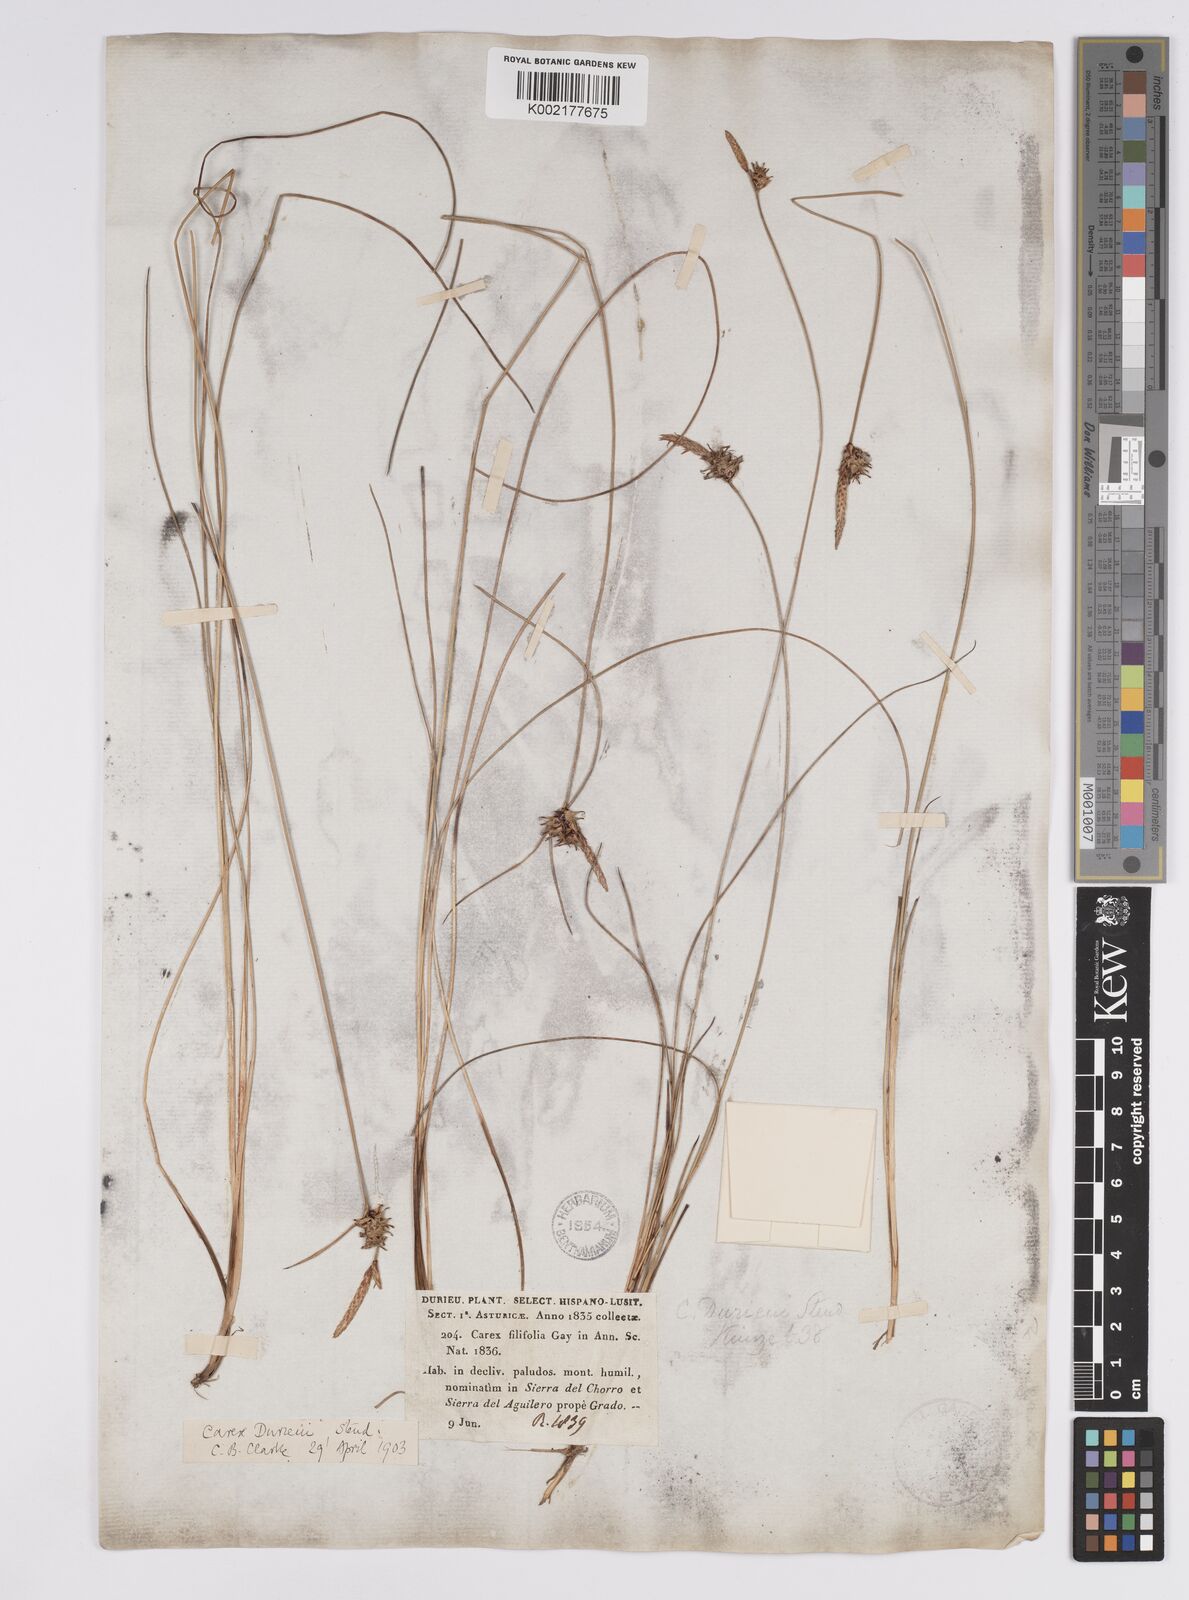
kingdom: Plantae
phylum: Tracheophyta
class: Liliopsida
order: Poales
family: Cyperaceae
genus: Carex
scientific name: Carex durieui
